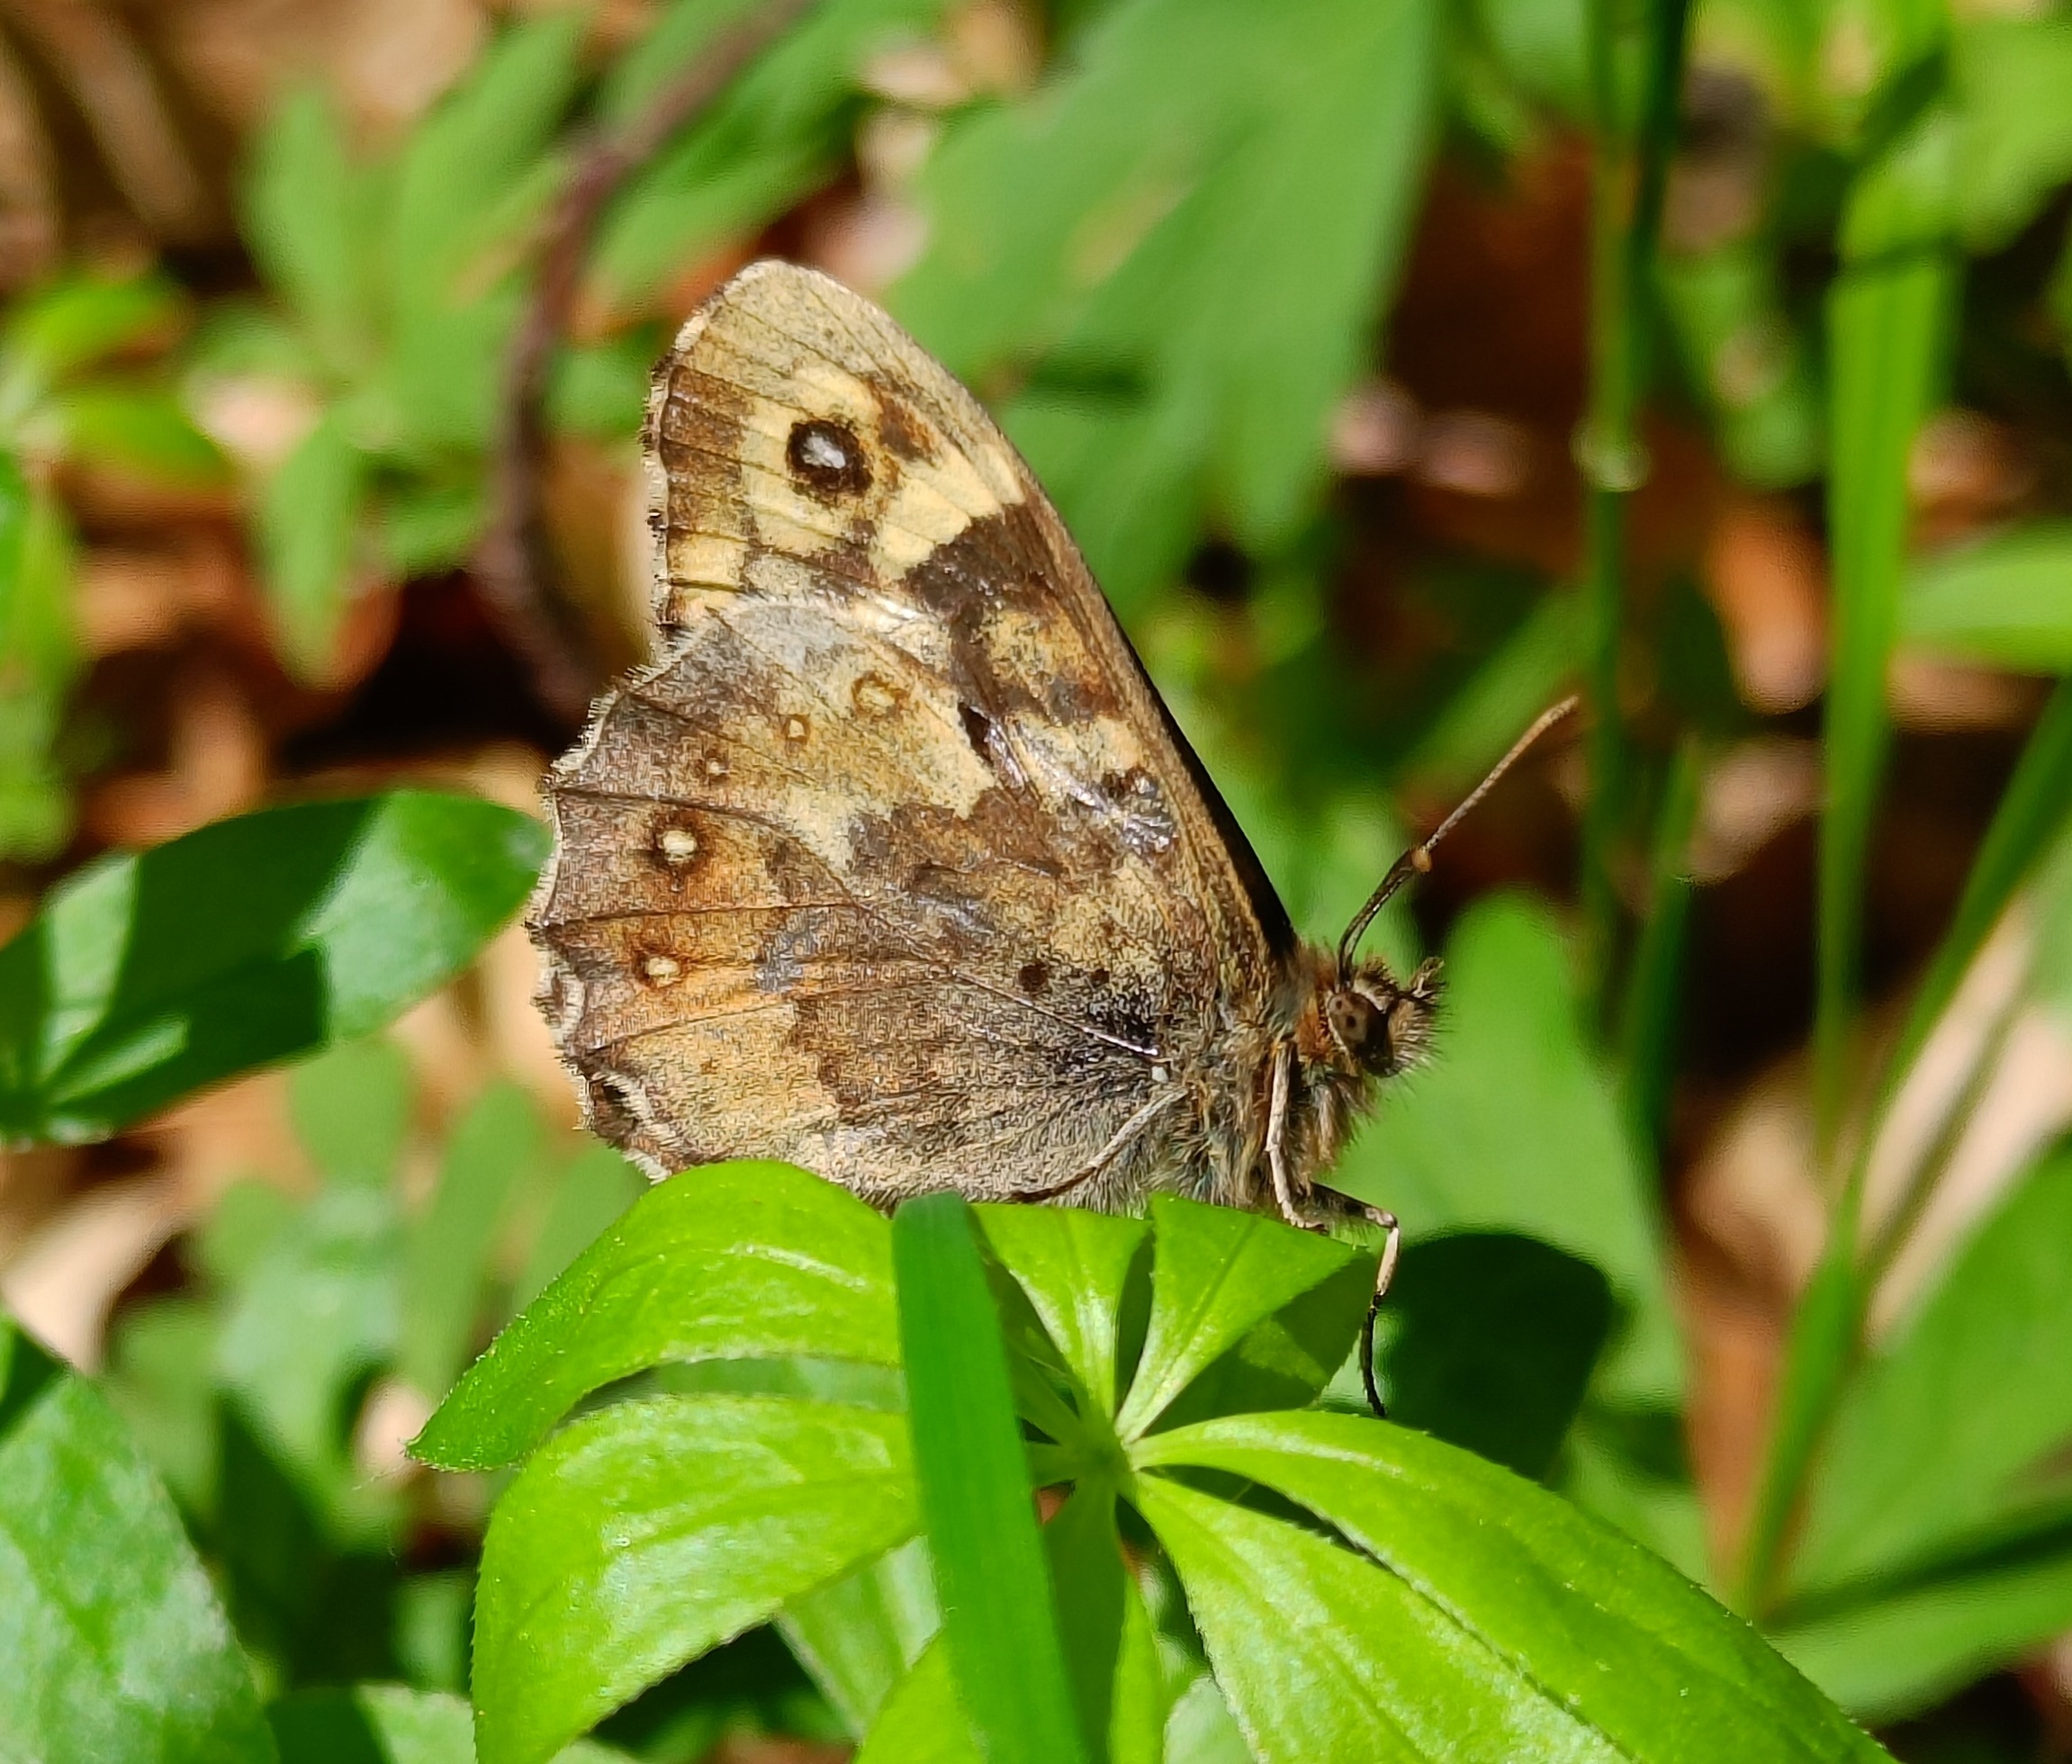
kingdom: Animalia
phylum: Arthropoda
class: Insecta
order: Lepidoptera
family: Nymphalidae
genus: Pararge
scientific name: Pararge aegeria
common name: Skovrandøje
